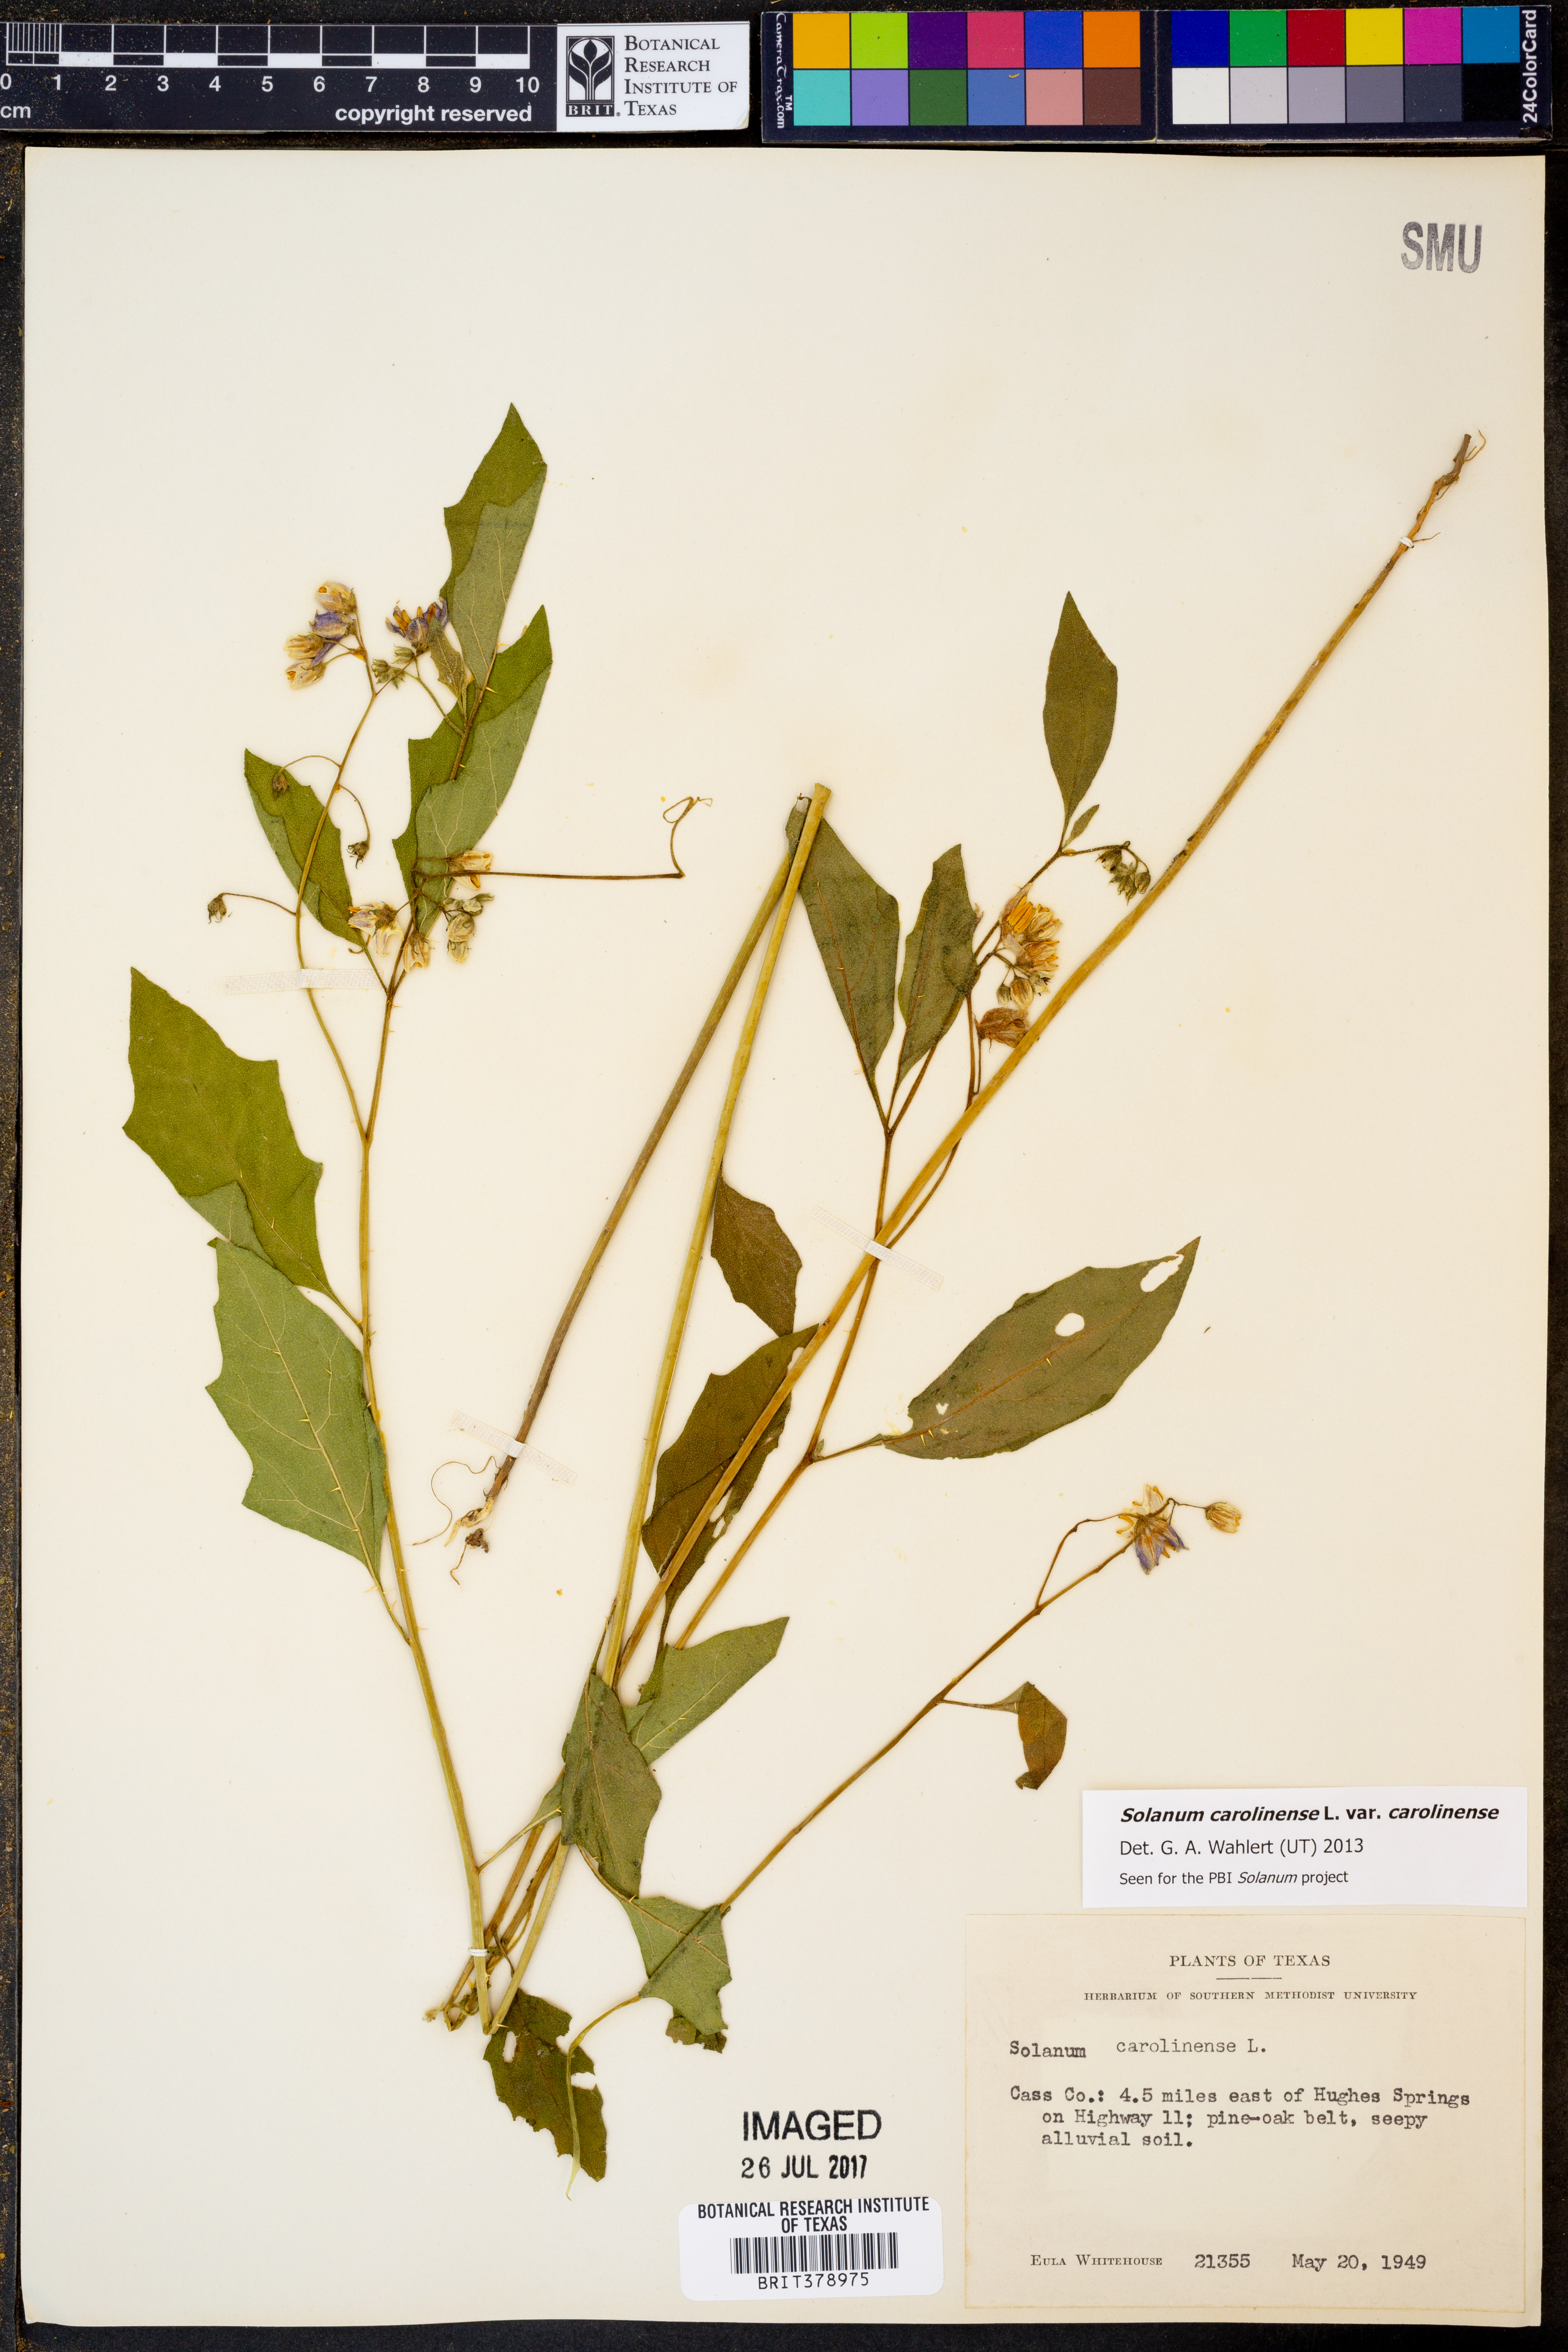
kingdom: Plantae
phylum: Tracheophyta
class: Magnoliopsida
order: Solanales
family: Solanaceae
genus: Solanum
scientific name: Solanum carolinense
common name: Horse-nettle
